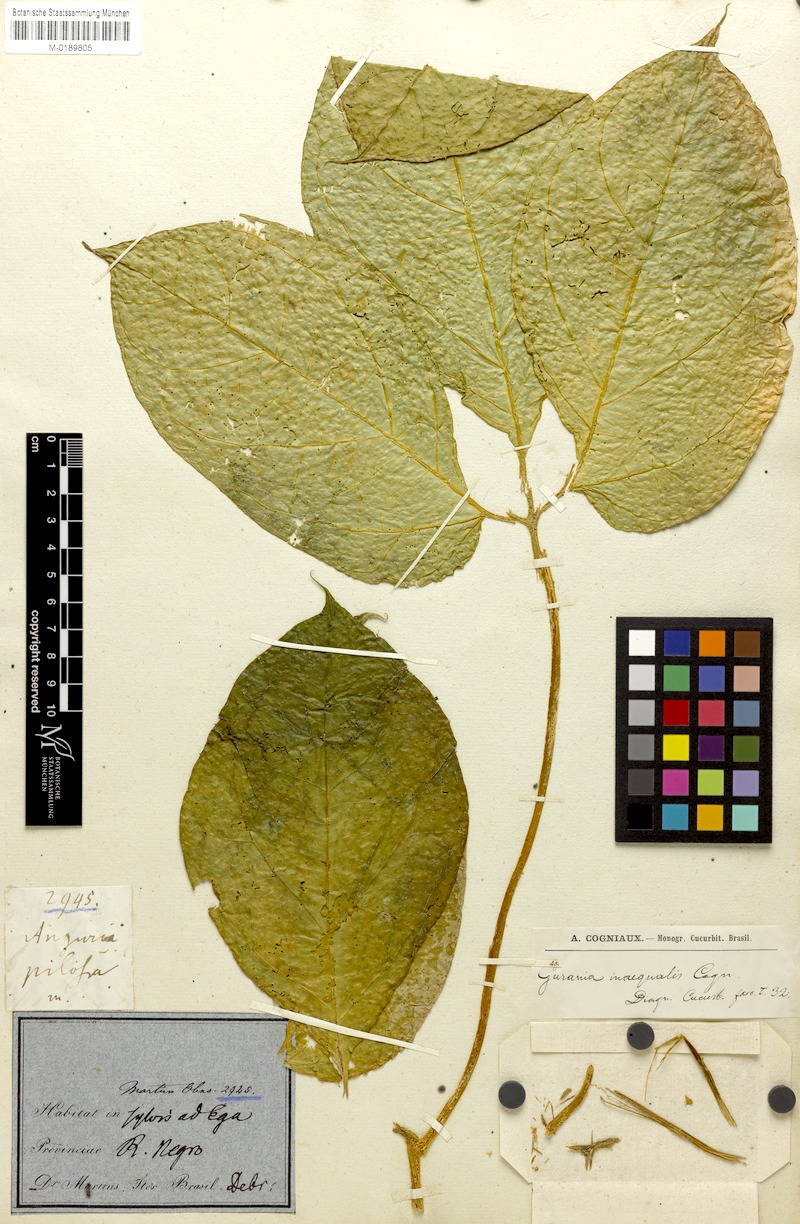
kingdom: Plantae
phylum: Tracheophyta
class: Magnoliopsida
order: Cucurbitales
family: Cucurbitaceae
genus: Gurania
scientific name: Gurania bignoniacea
